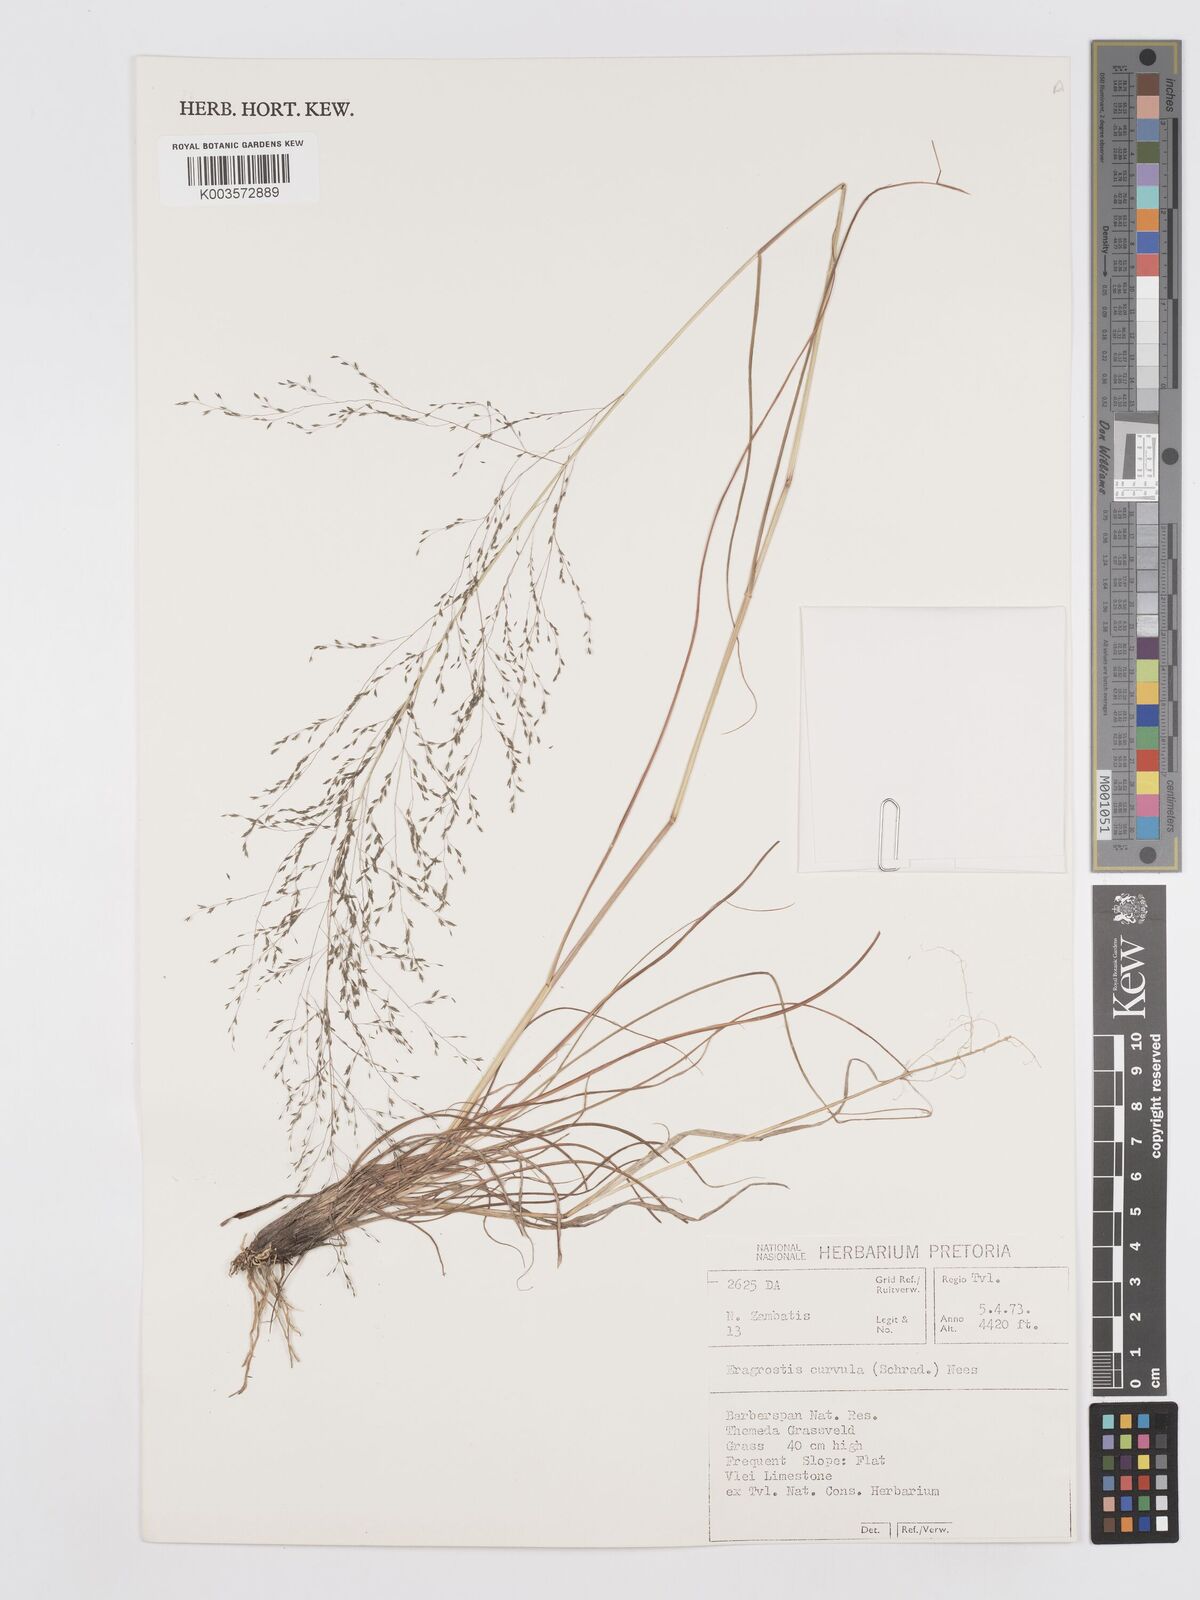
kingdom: Plantae
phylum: Tracheophyta
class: Liliopsida
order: Poales
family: Poaceae
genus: Eragrostis
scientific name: Eragrostis curvula
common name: African love-grass
